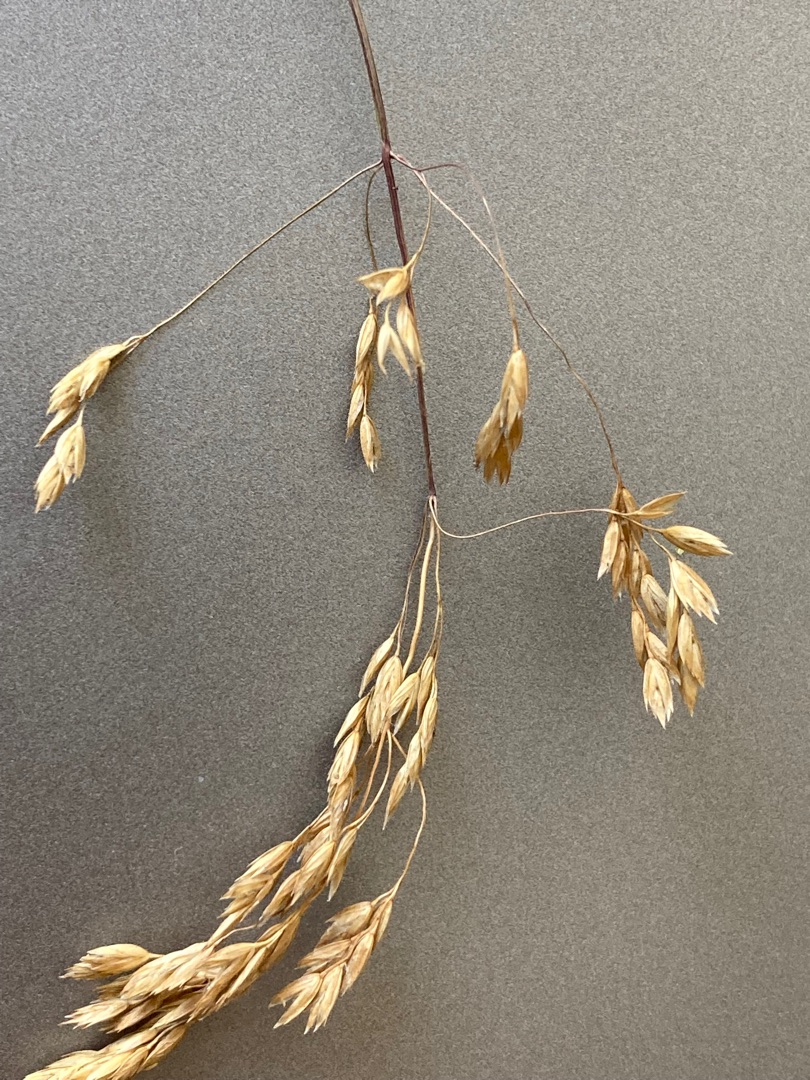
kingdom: Plantae
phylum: Tracheophyta
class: Liliopsida
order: Poales
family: Poaceae
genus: Poa
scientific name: Poa pratensis
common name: Eng-rapgræs
